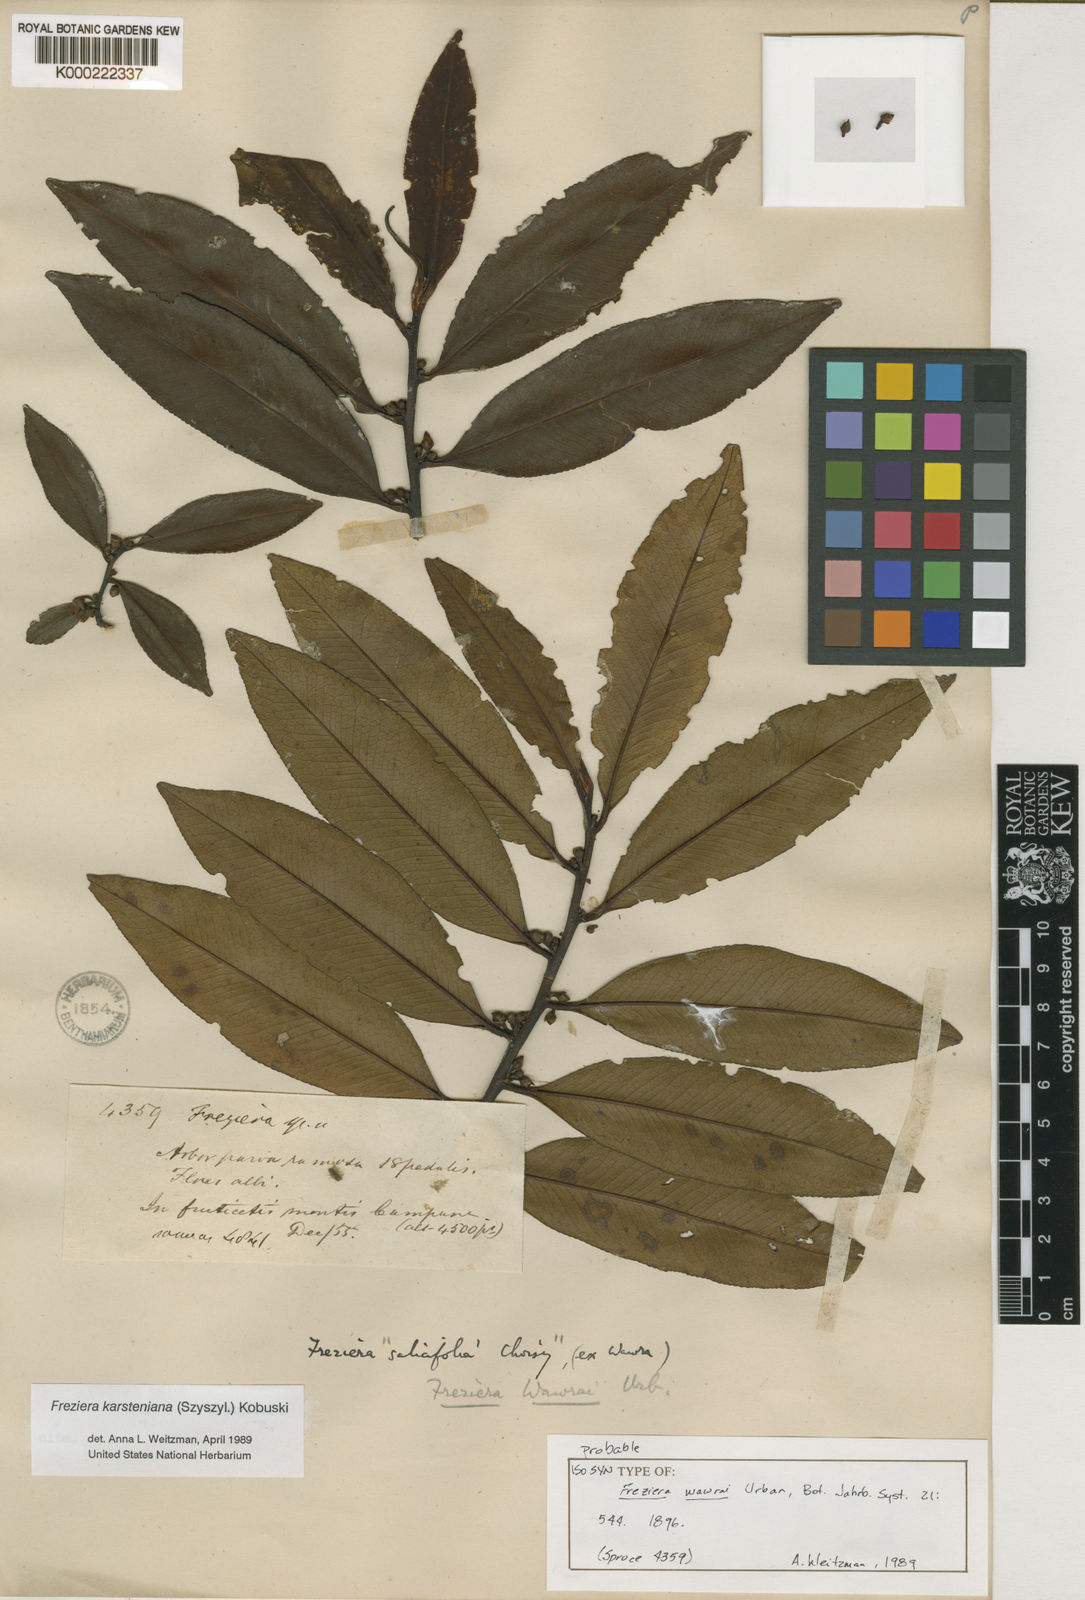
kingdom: Plantae
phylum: Tracheophyta
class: Magnoliopsida
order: Ericales
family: Pentaphylacaceae
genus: Freziera
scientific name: Freziera
